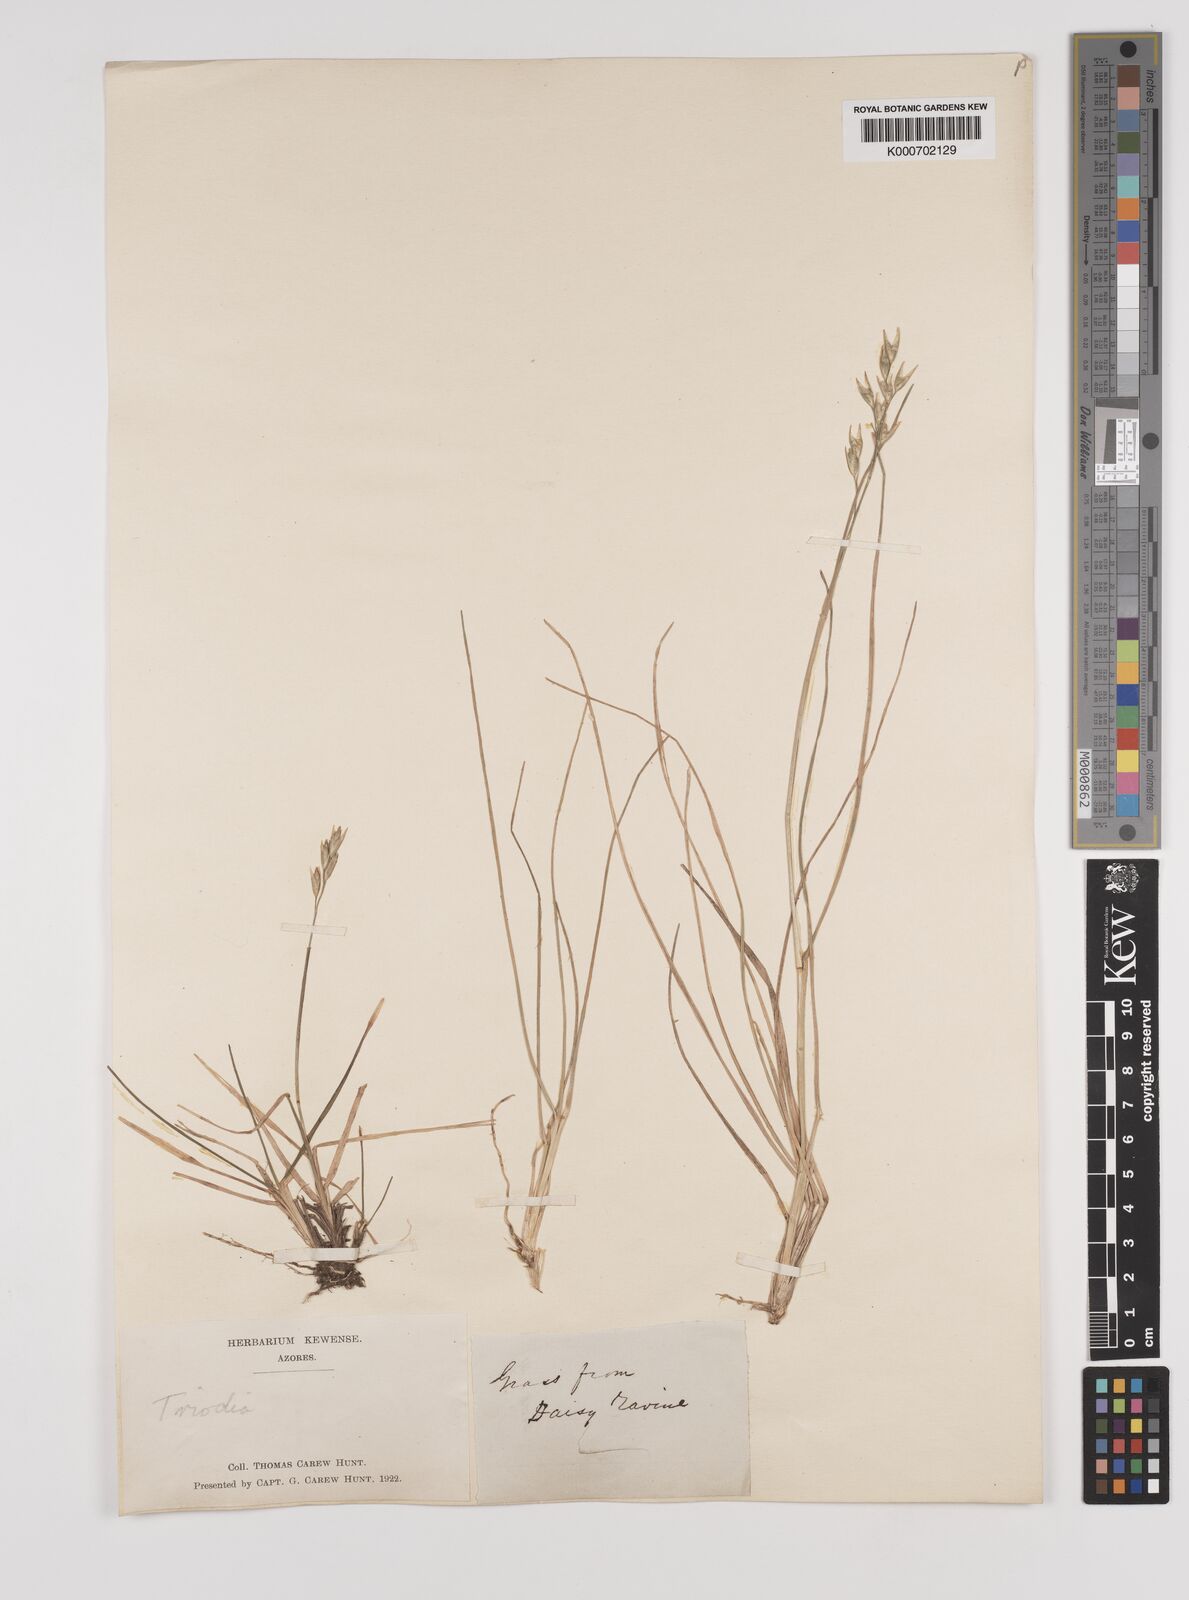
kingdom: Plantae
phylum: Tracheophyta
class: Liliopsida
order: Poales
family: Poaceae
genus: Danthonia
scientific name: Danthonia decumbens
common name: Common heathgrass
